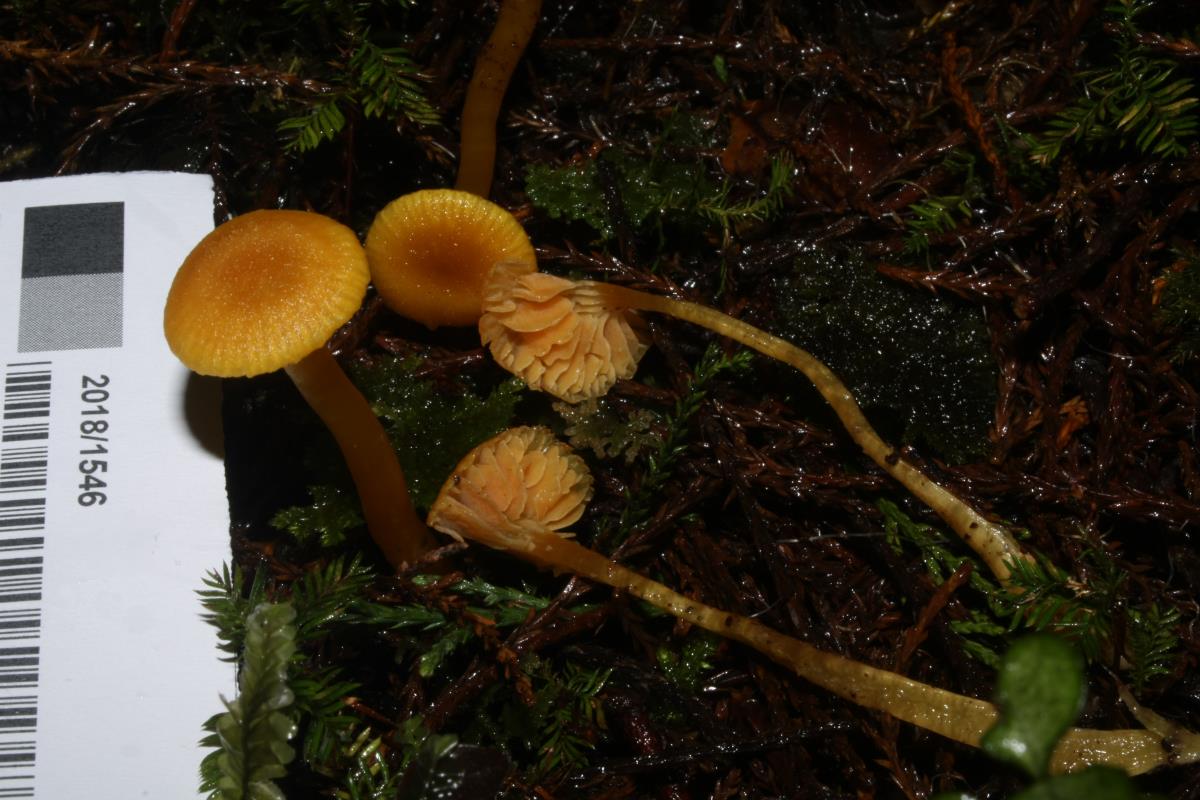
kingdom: Fungi
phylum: Basidiomycota
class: Agaricomycetes
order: Agaricales
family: Hygrophoraceae
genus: Hygrocybe
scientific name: Hygrocybe firma
